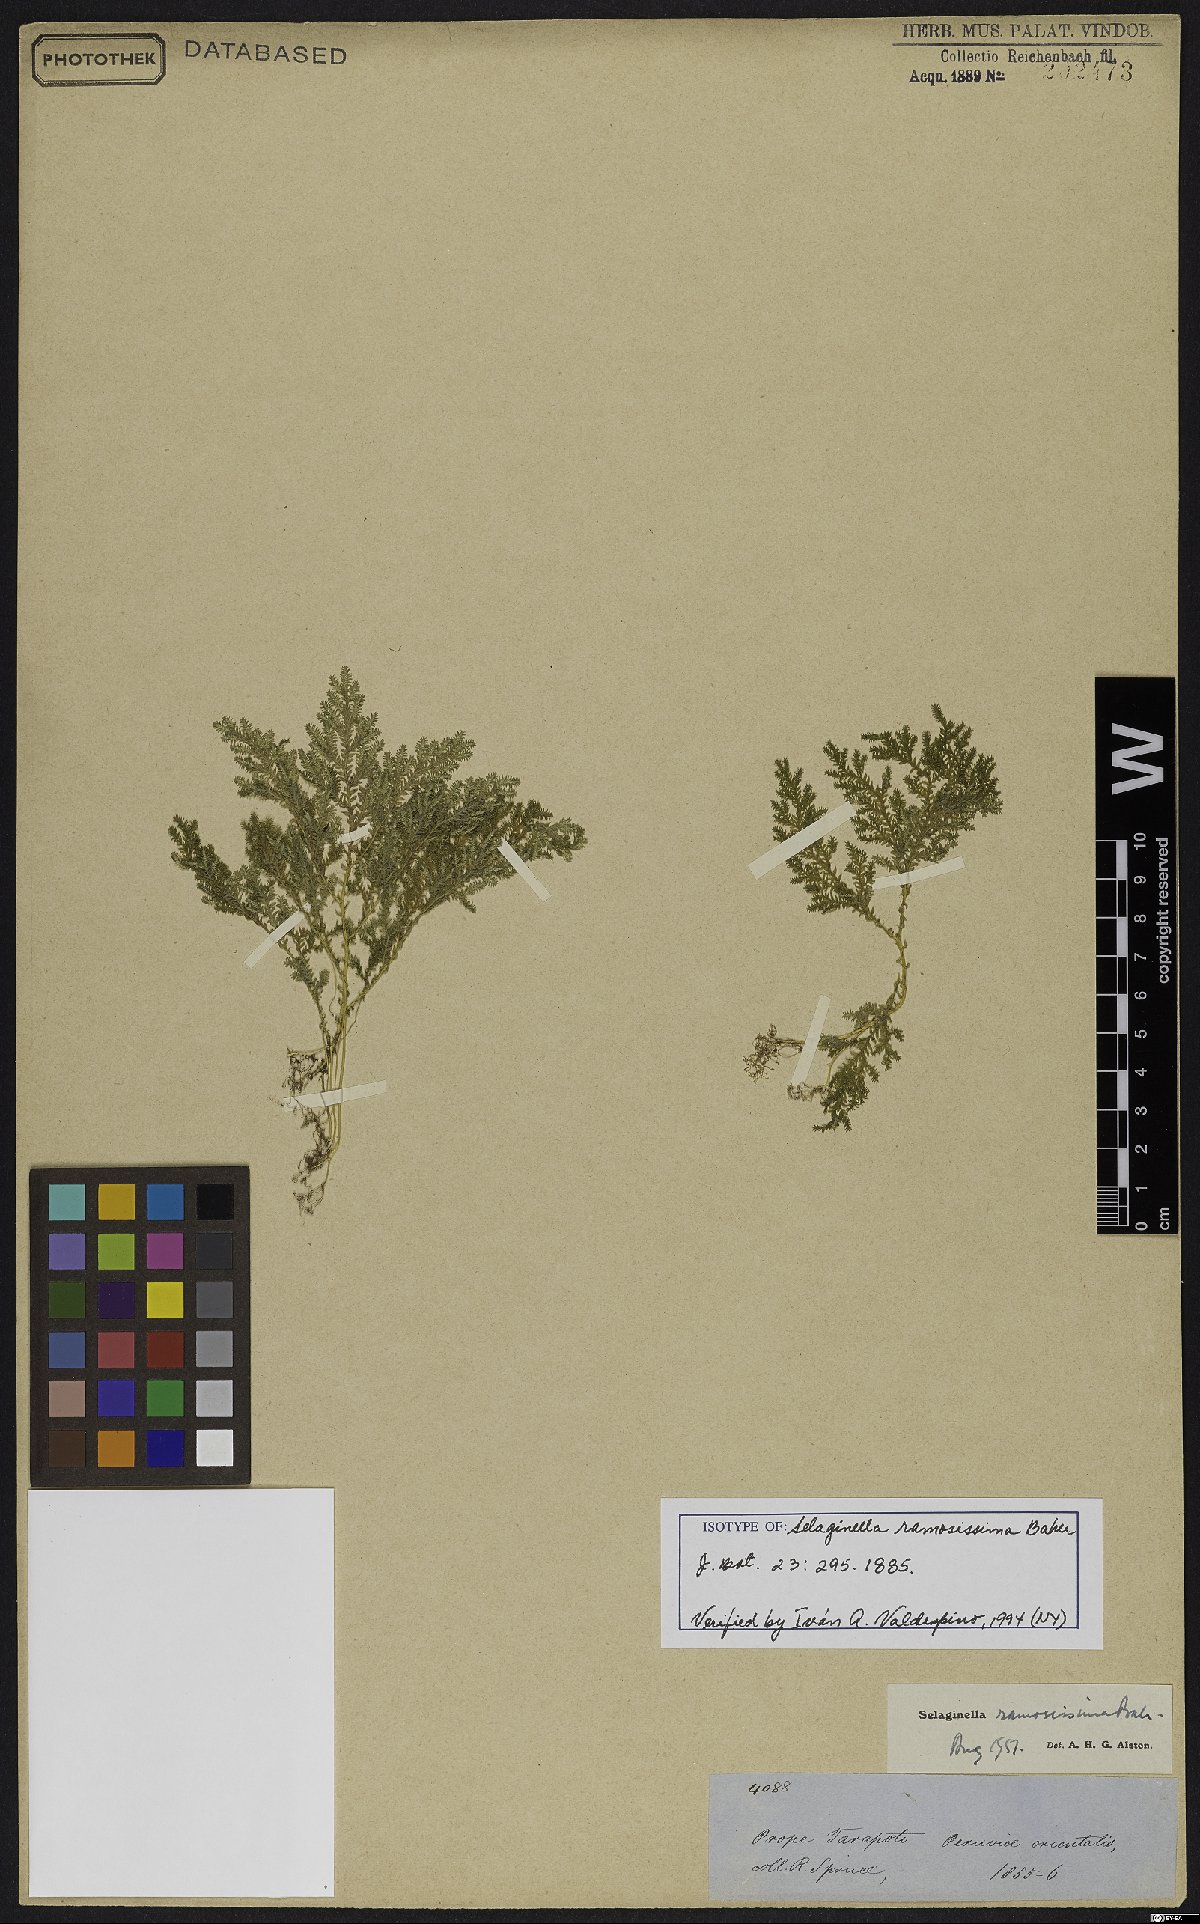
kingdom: Plantae
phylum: Tracheophyta
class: Lycopodiopsida
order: Selaginellales
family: Selaginellaceae
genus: Selaginella
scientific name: Selaginella ramosissima
